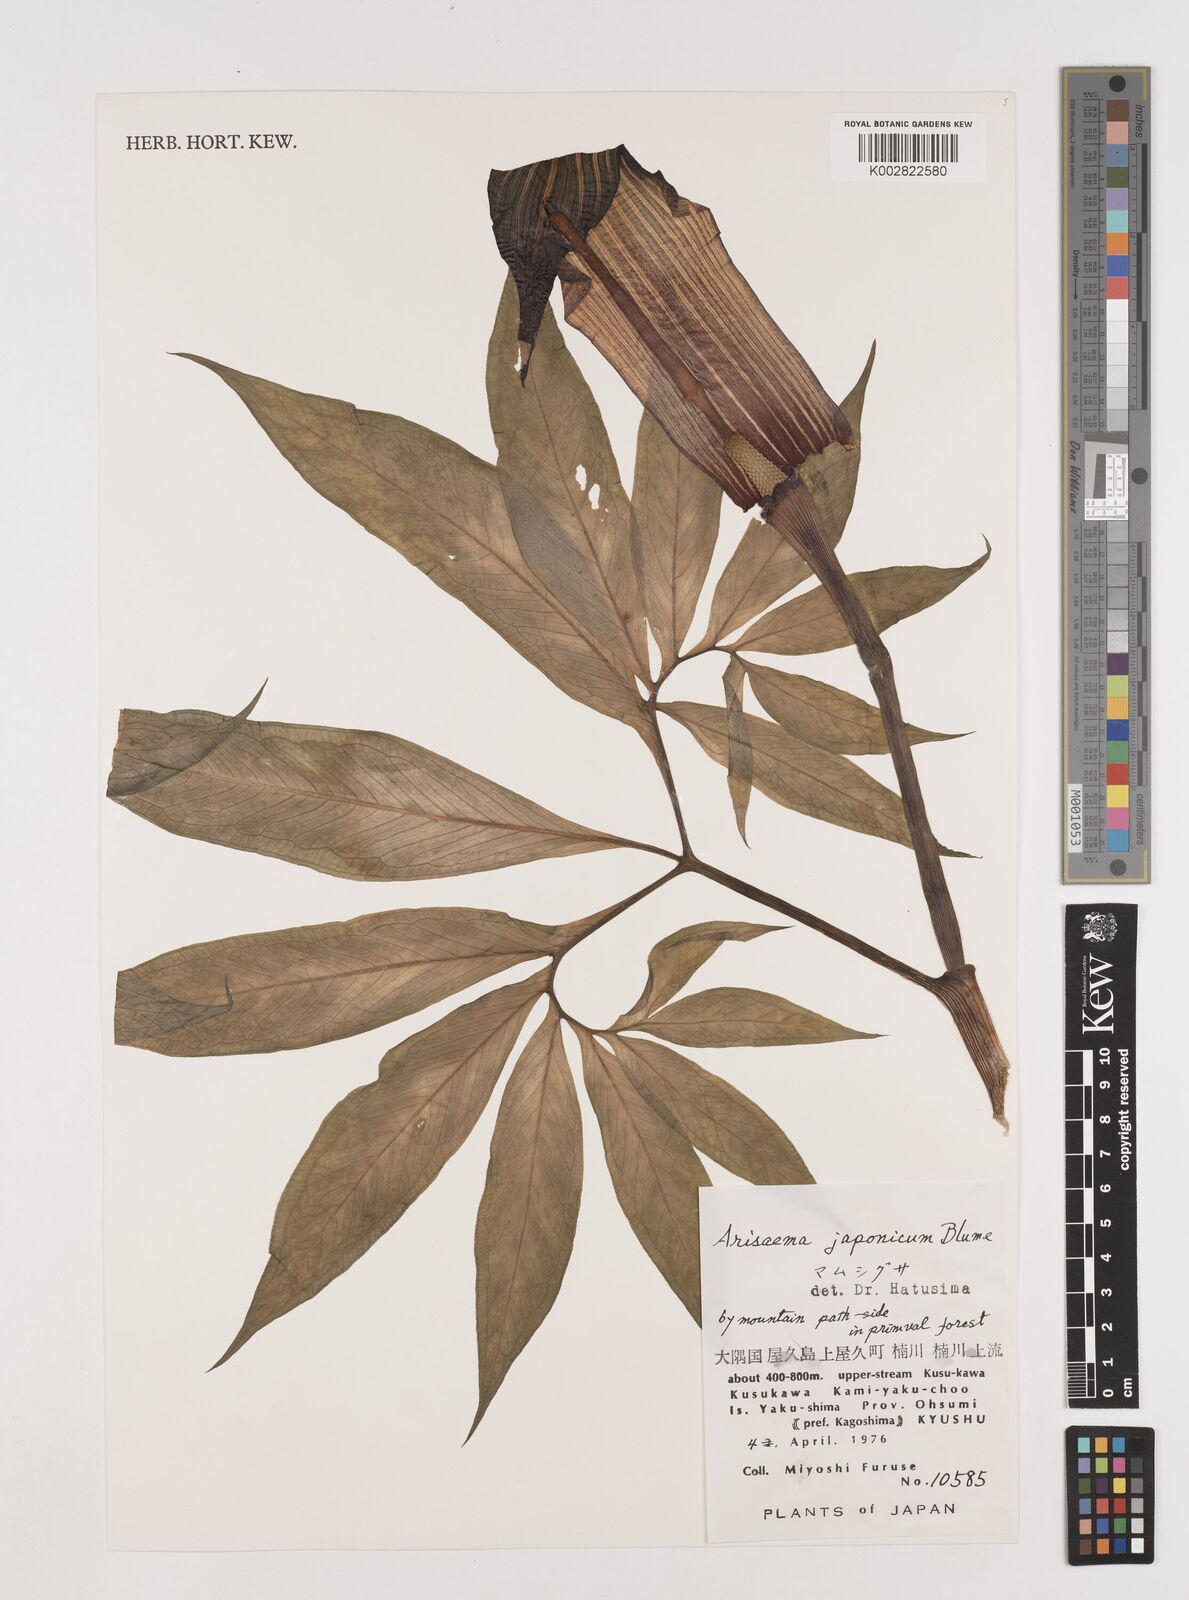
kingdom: Plantae
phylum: Tracheophyta
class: Liliopsida
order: Alismatales
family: Araceae
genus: Arisaema
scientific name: Arisaema serratum
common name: Japanese arisaema
